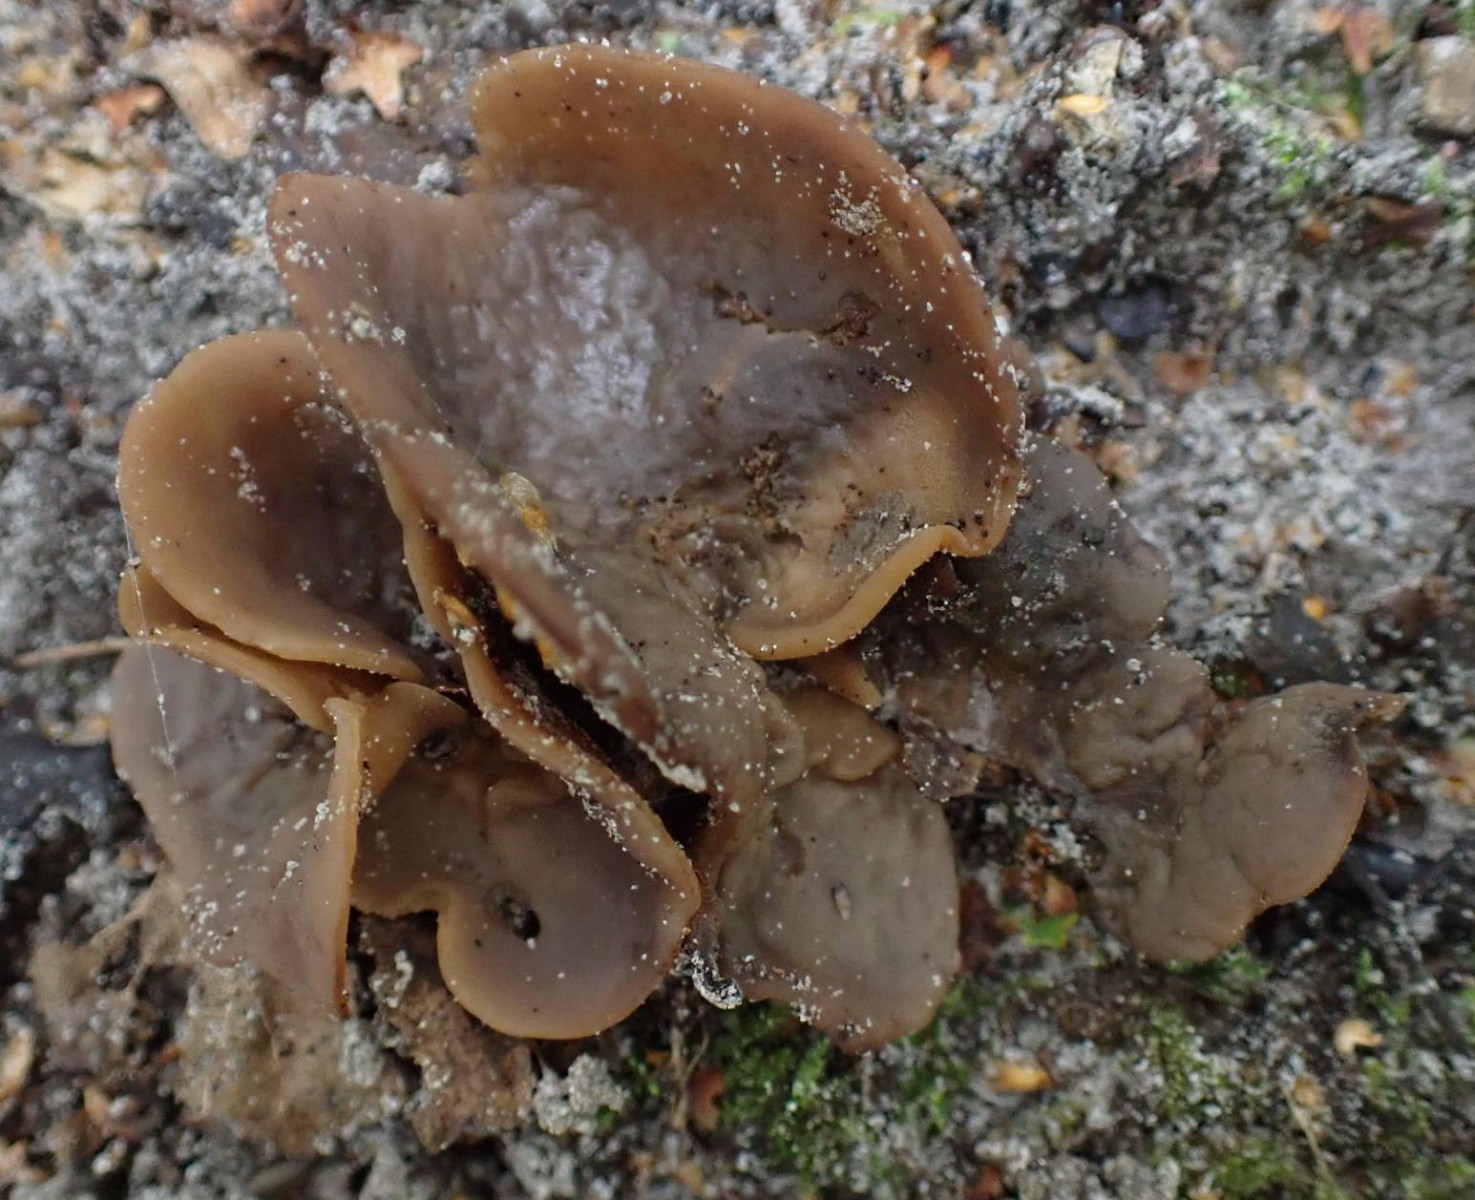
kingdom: Fungi
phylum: Ascomycota
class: Pezizomycetes
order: Pezizales
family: Otideaceae
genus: Otidea
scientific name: Otidea
